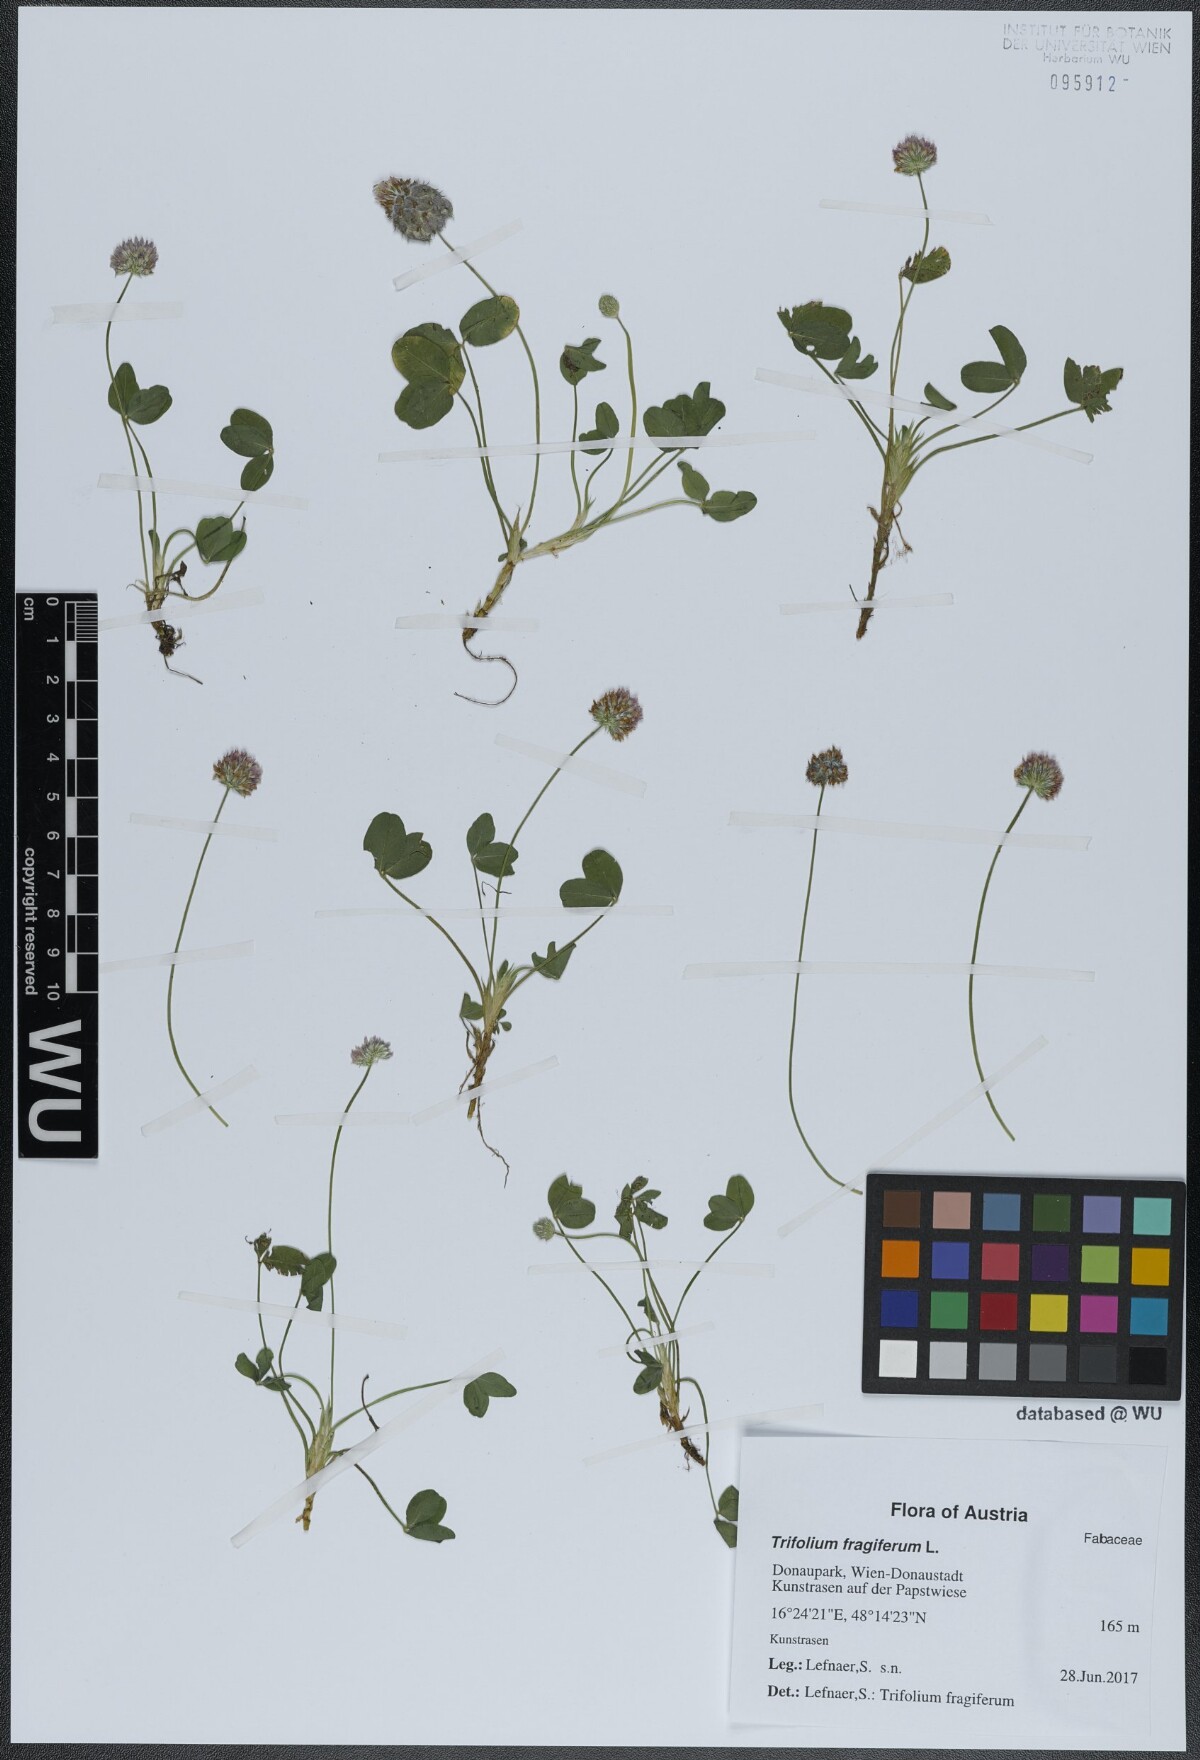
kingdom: Plantae
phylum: Tracheophyta
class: Magnoliopsida
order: Fabales
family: Fabaceae
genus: Trifolium
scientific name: Trifolium fragiferum
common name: Strawberry clover
